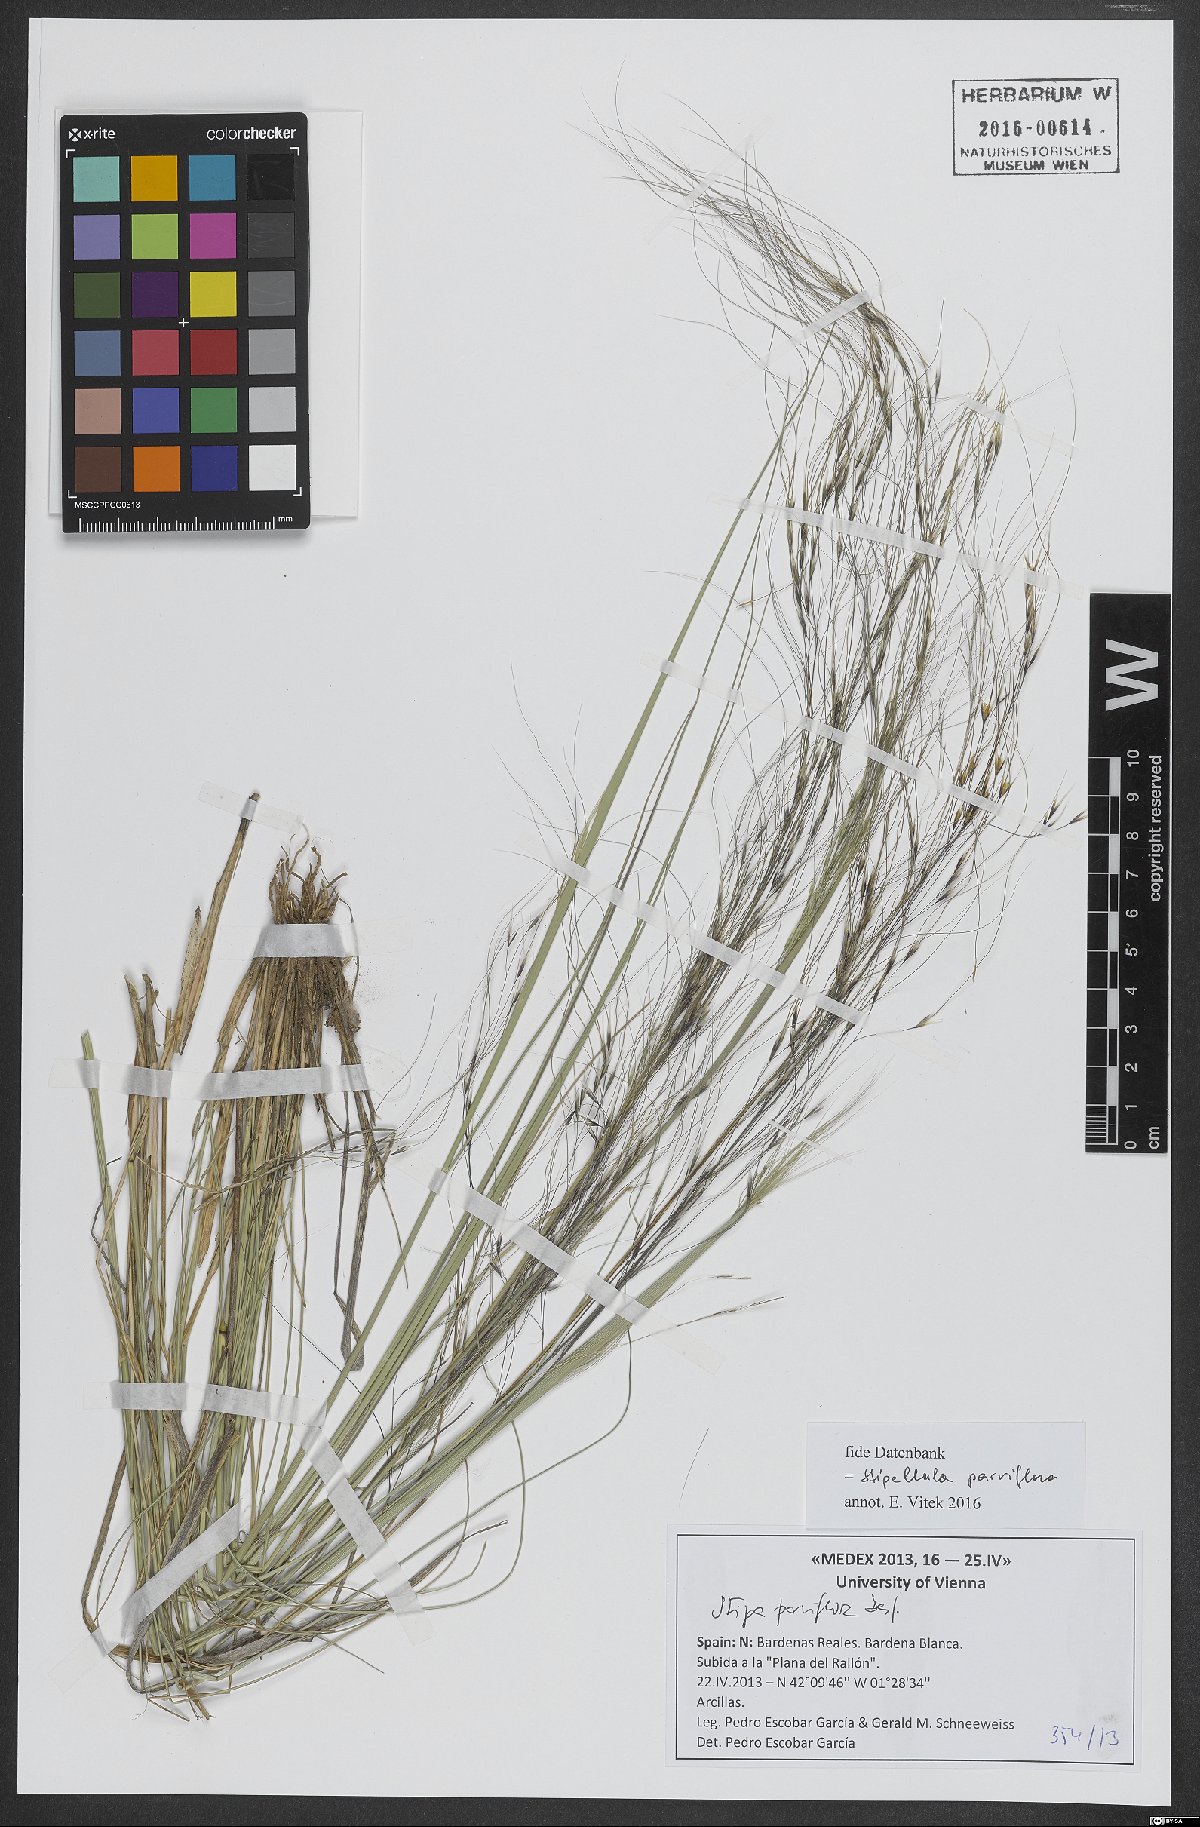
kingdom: Plantae
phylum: Tracheophyta
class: Liliopsida
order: Poales
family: Poaceae
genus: Achnatherum
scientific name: Achnatherum parviflorum
